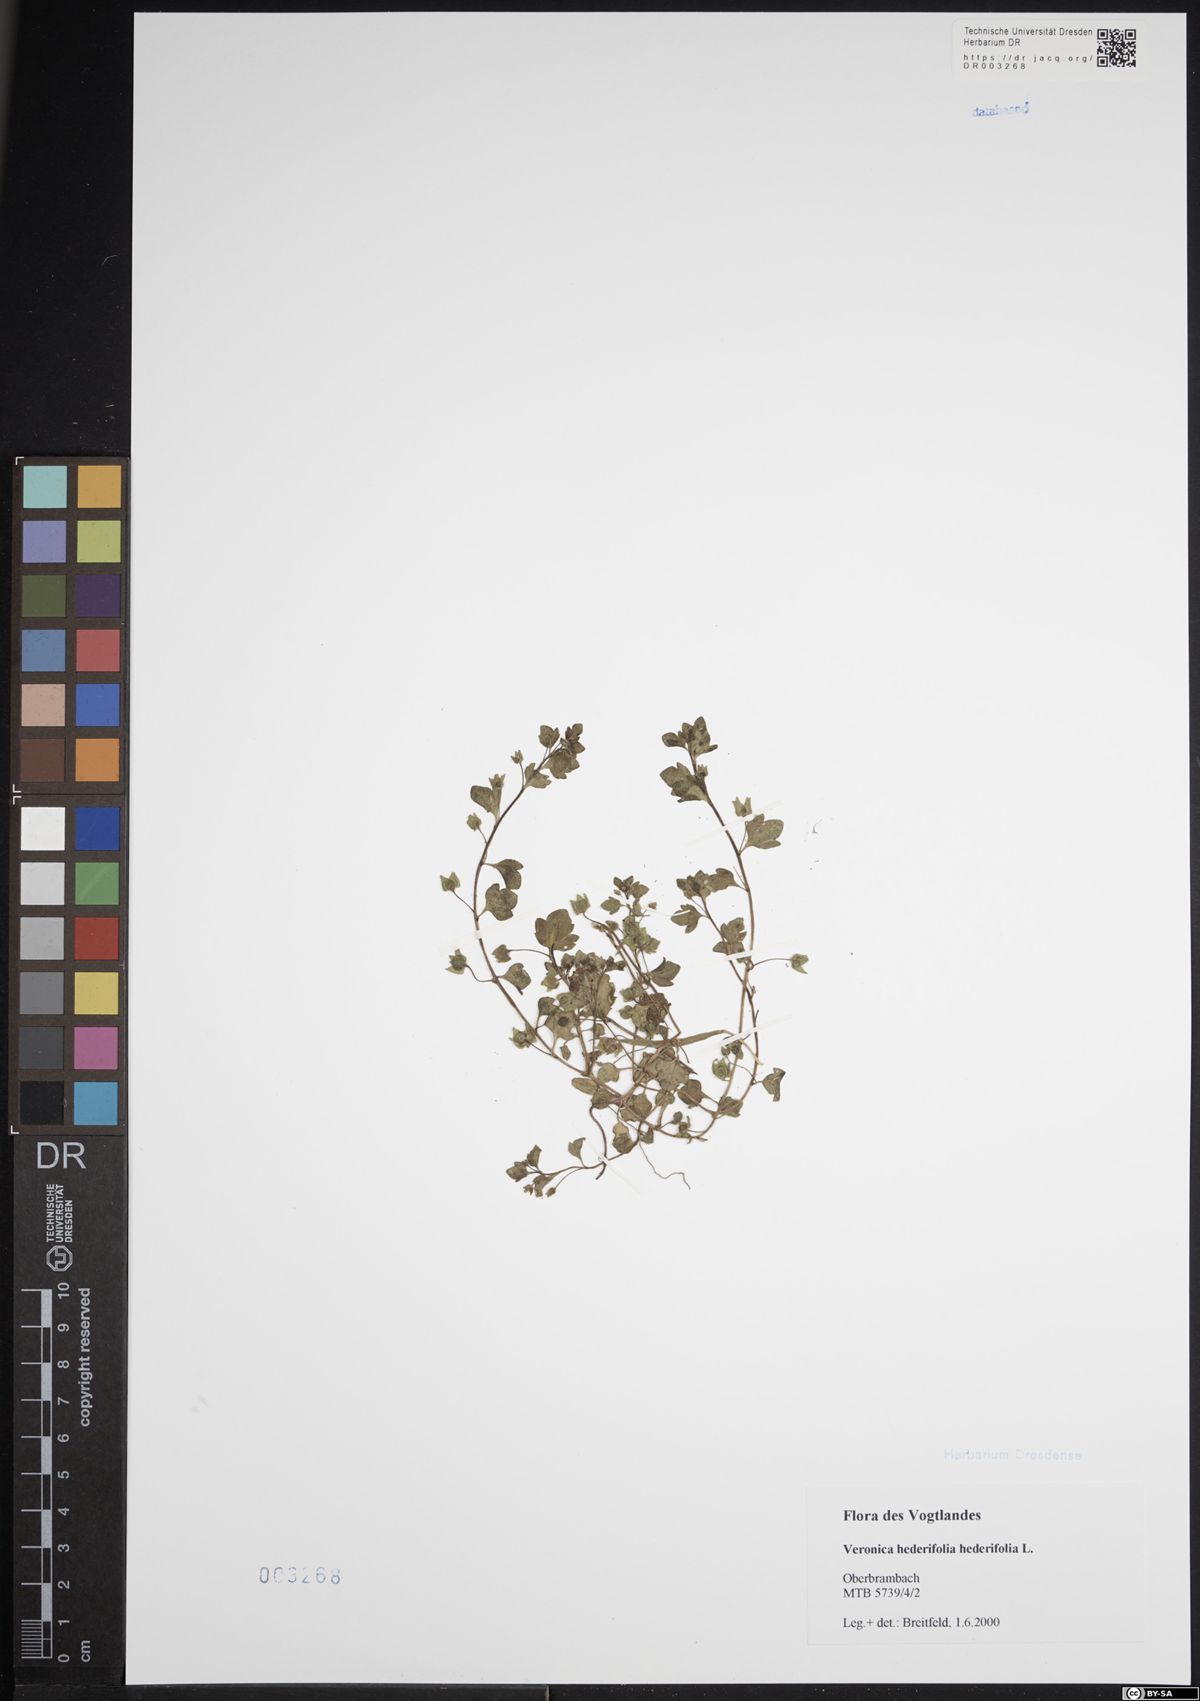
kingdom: Plantae
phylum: Tracheophyta
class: Magnoliopsida
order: Lamiales
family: Plantaginaceae
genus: Veronica
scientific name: Veronica hederifolia
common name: Ivy-leaved speedwell
